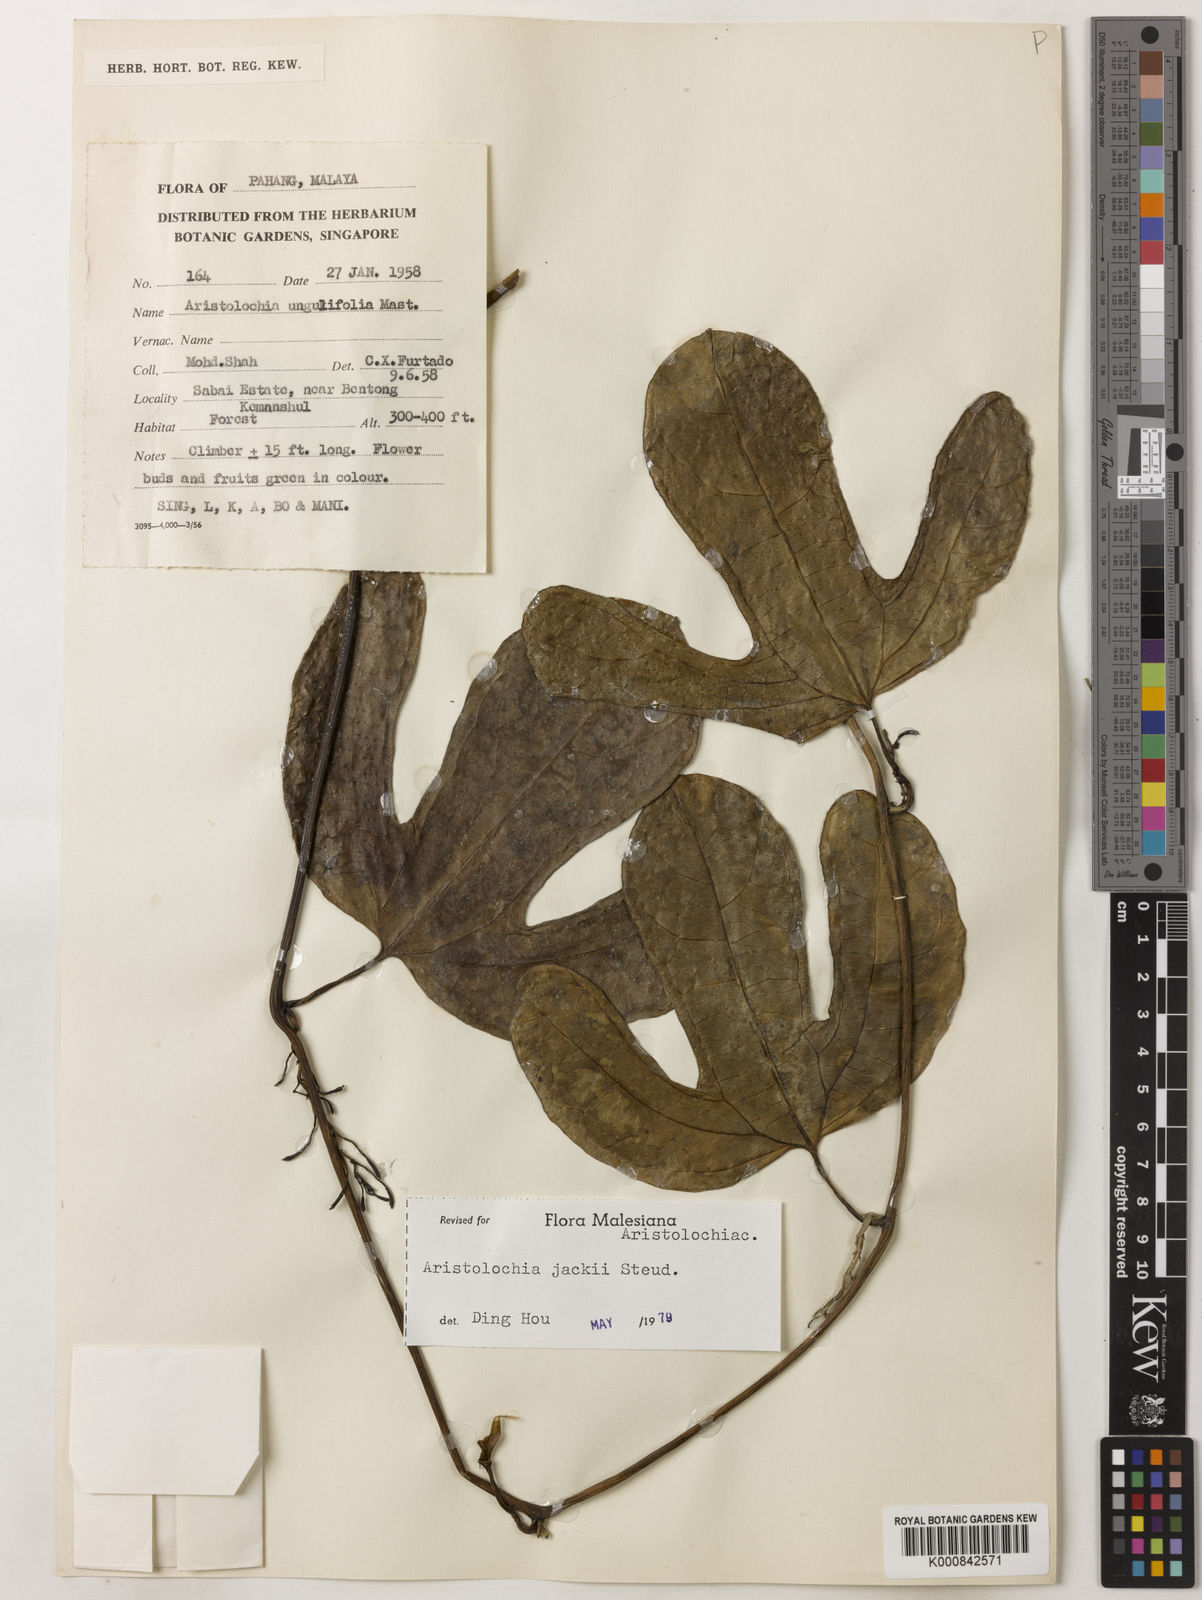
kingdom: Plantae
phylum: Tracheophyta
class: Magnoliopsida
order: Piperales
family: Aristolochiaceae
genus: Aristolochia
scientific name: Aristolochia jackii
